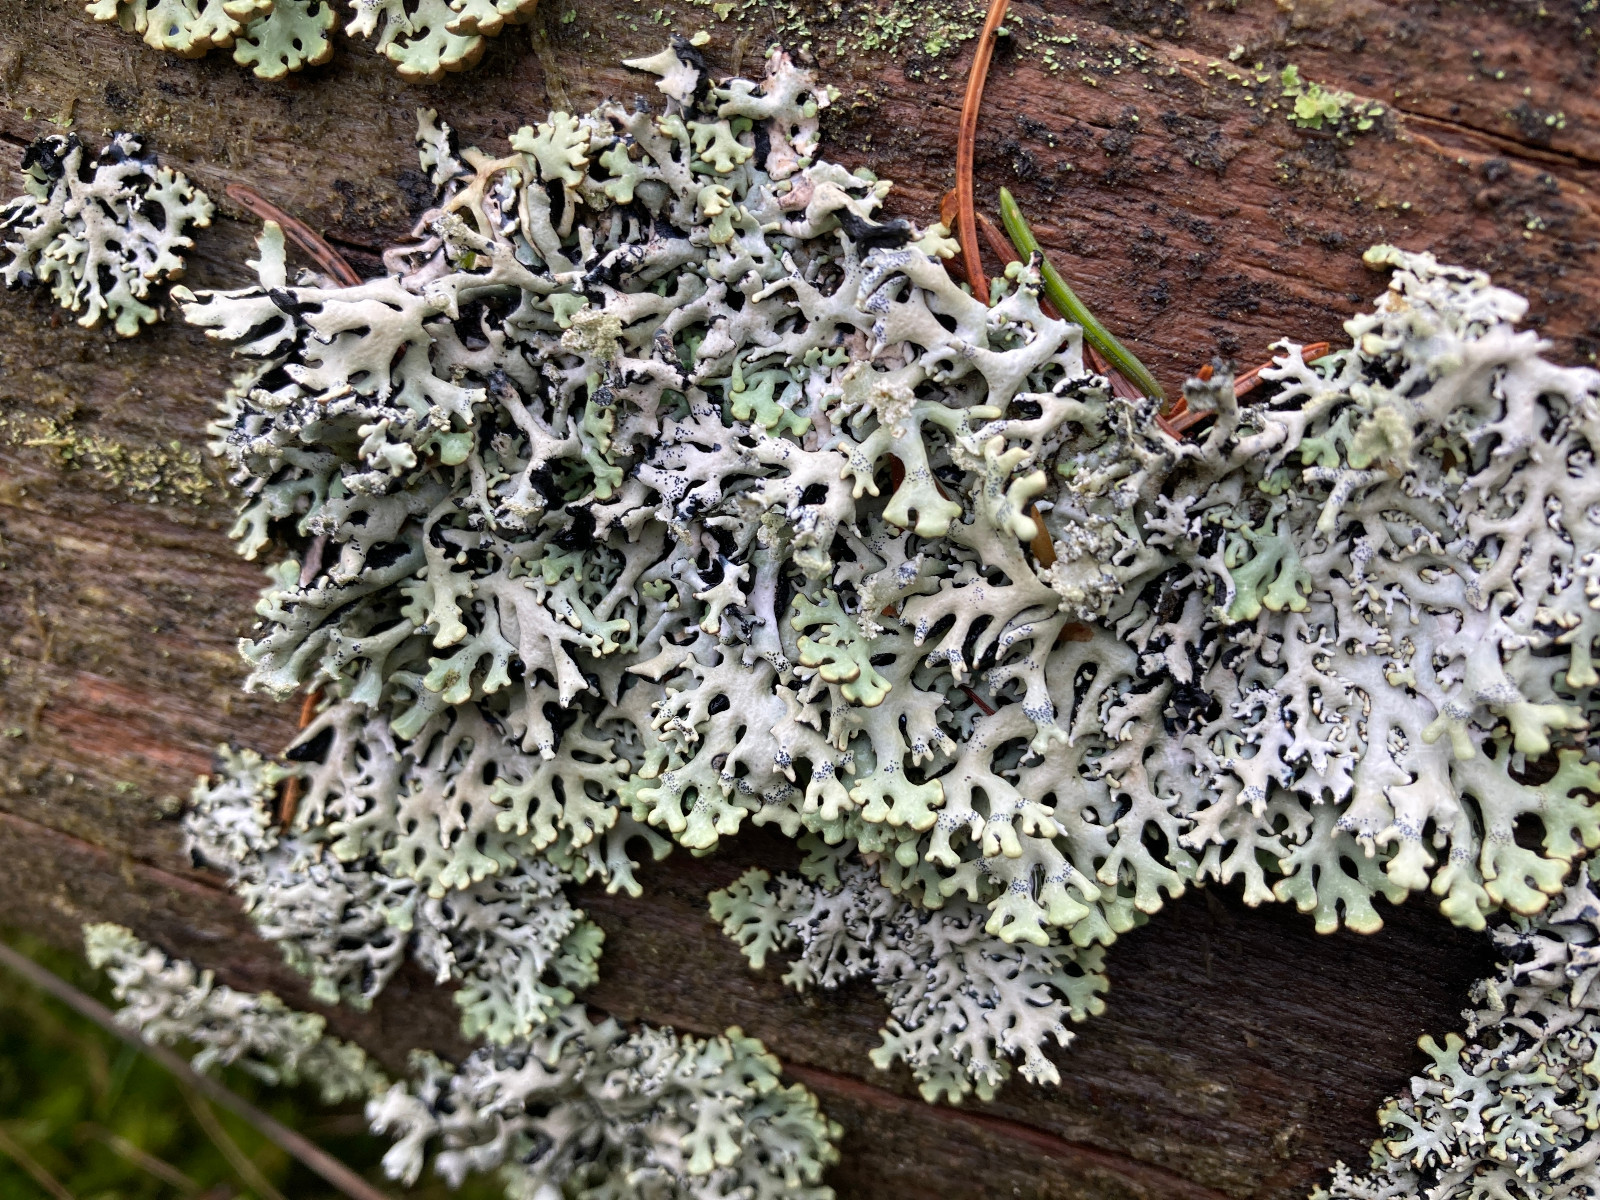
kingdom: Fungi
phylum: Ascomycota
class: Lecanoromycetes
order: Lecanorales
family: Parmeliaceae
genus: Hypogymnia
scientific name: Hypogymnia physodes
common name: almindelig kvistlav
